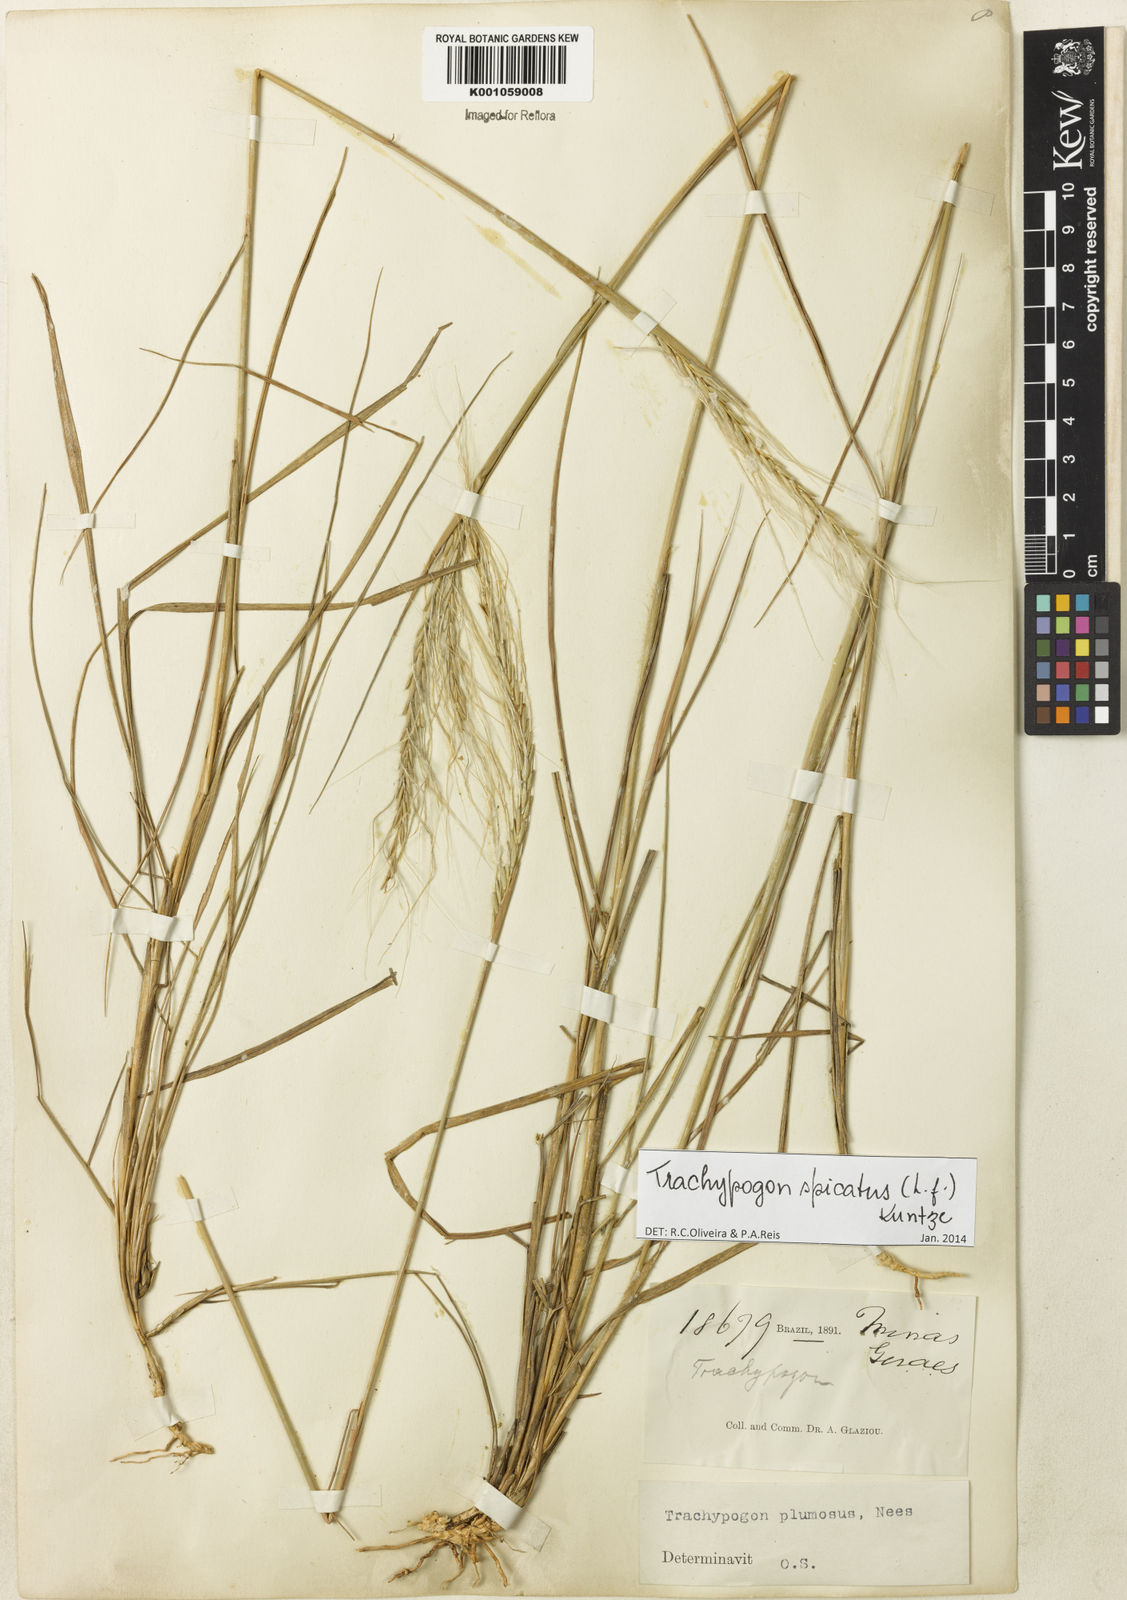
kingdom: Plantae
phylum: Tracheophyta
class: Liliopsida
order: Poales
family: Poaceae
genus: Trachypogon
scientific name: Trachypogon spicatus
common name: Crinkle-awn
